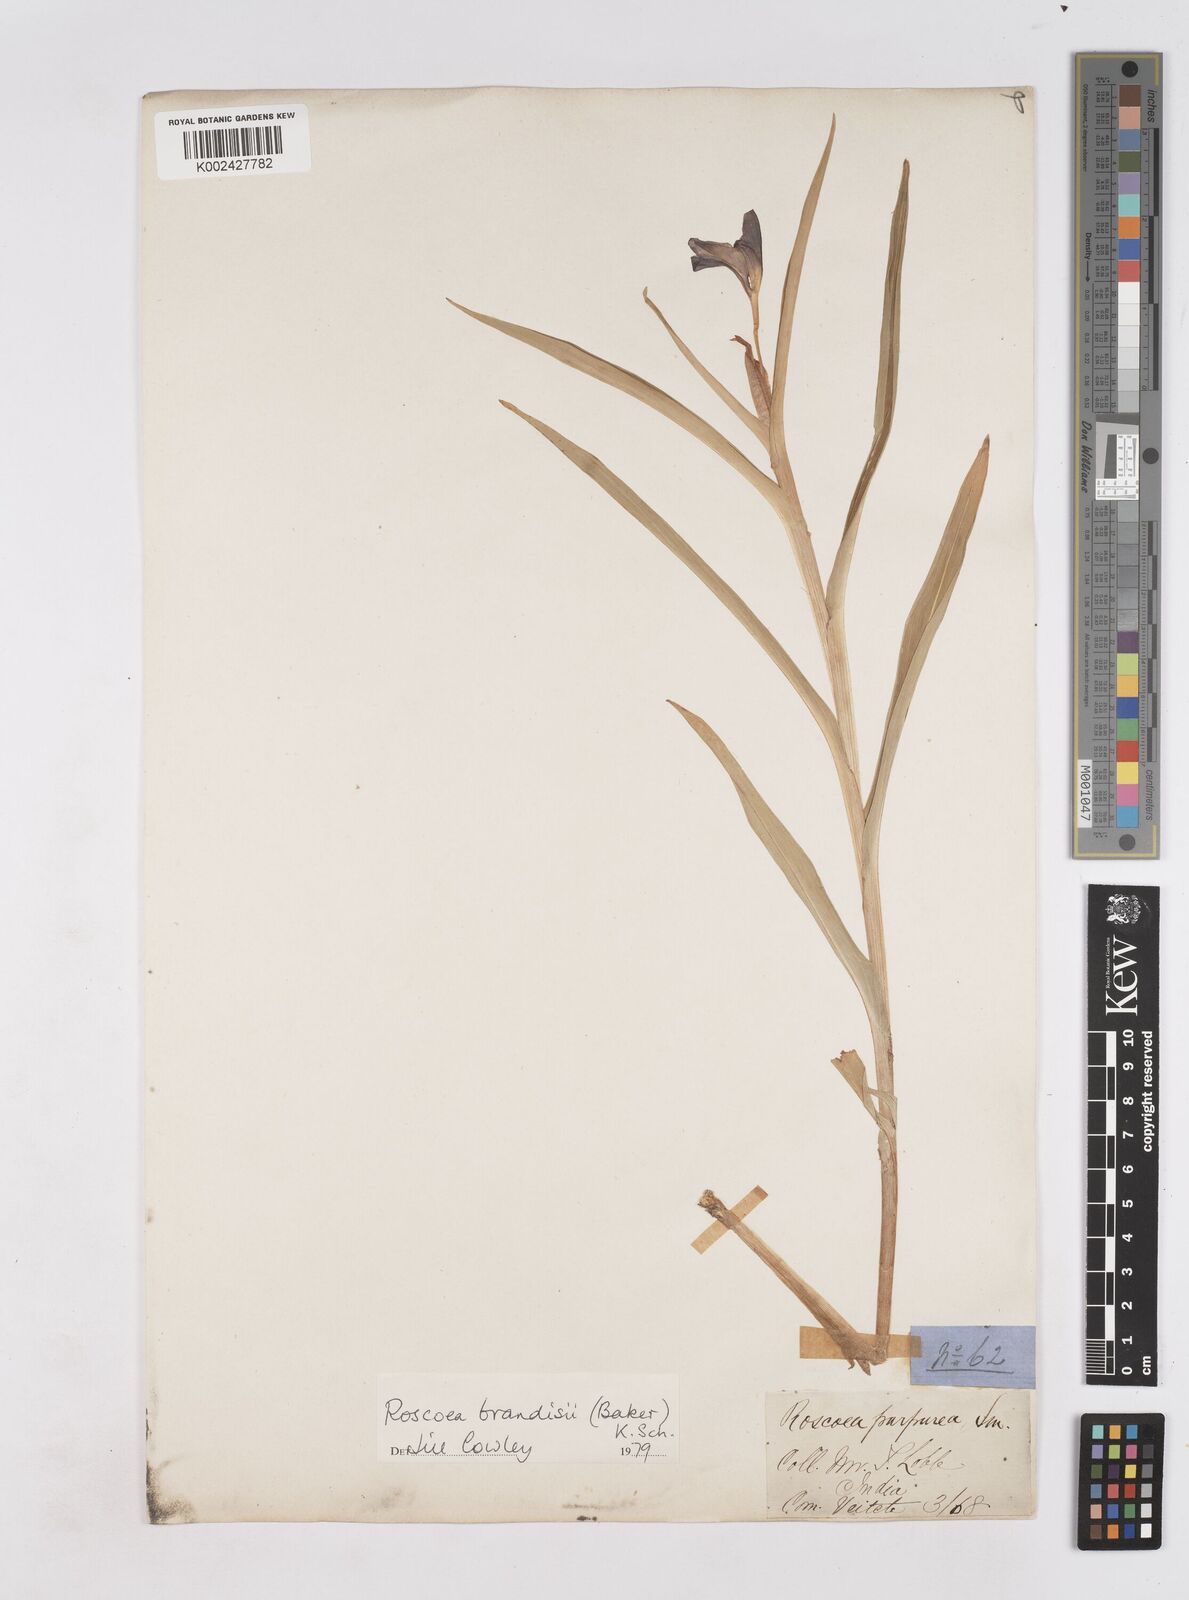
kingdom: Plantae
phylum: Tracheophyta
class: Liliopsida
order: Zingiberales
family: Zingiberaceae
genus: Roscoea
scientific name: Roscoea brandisii
